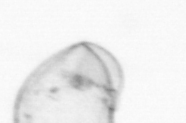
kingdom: Chromista
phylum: Myzozoa
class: Dinophyceae
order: Noctilucales
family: Noctilucaceae
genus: Noctiluca
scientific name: Noctiluca scintillans
